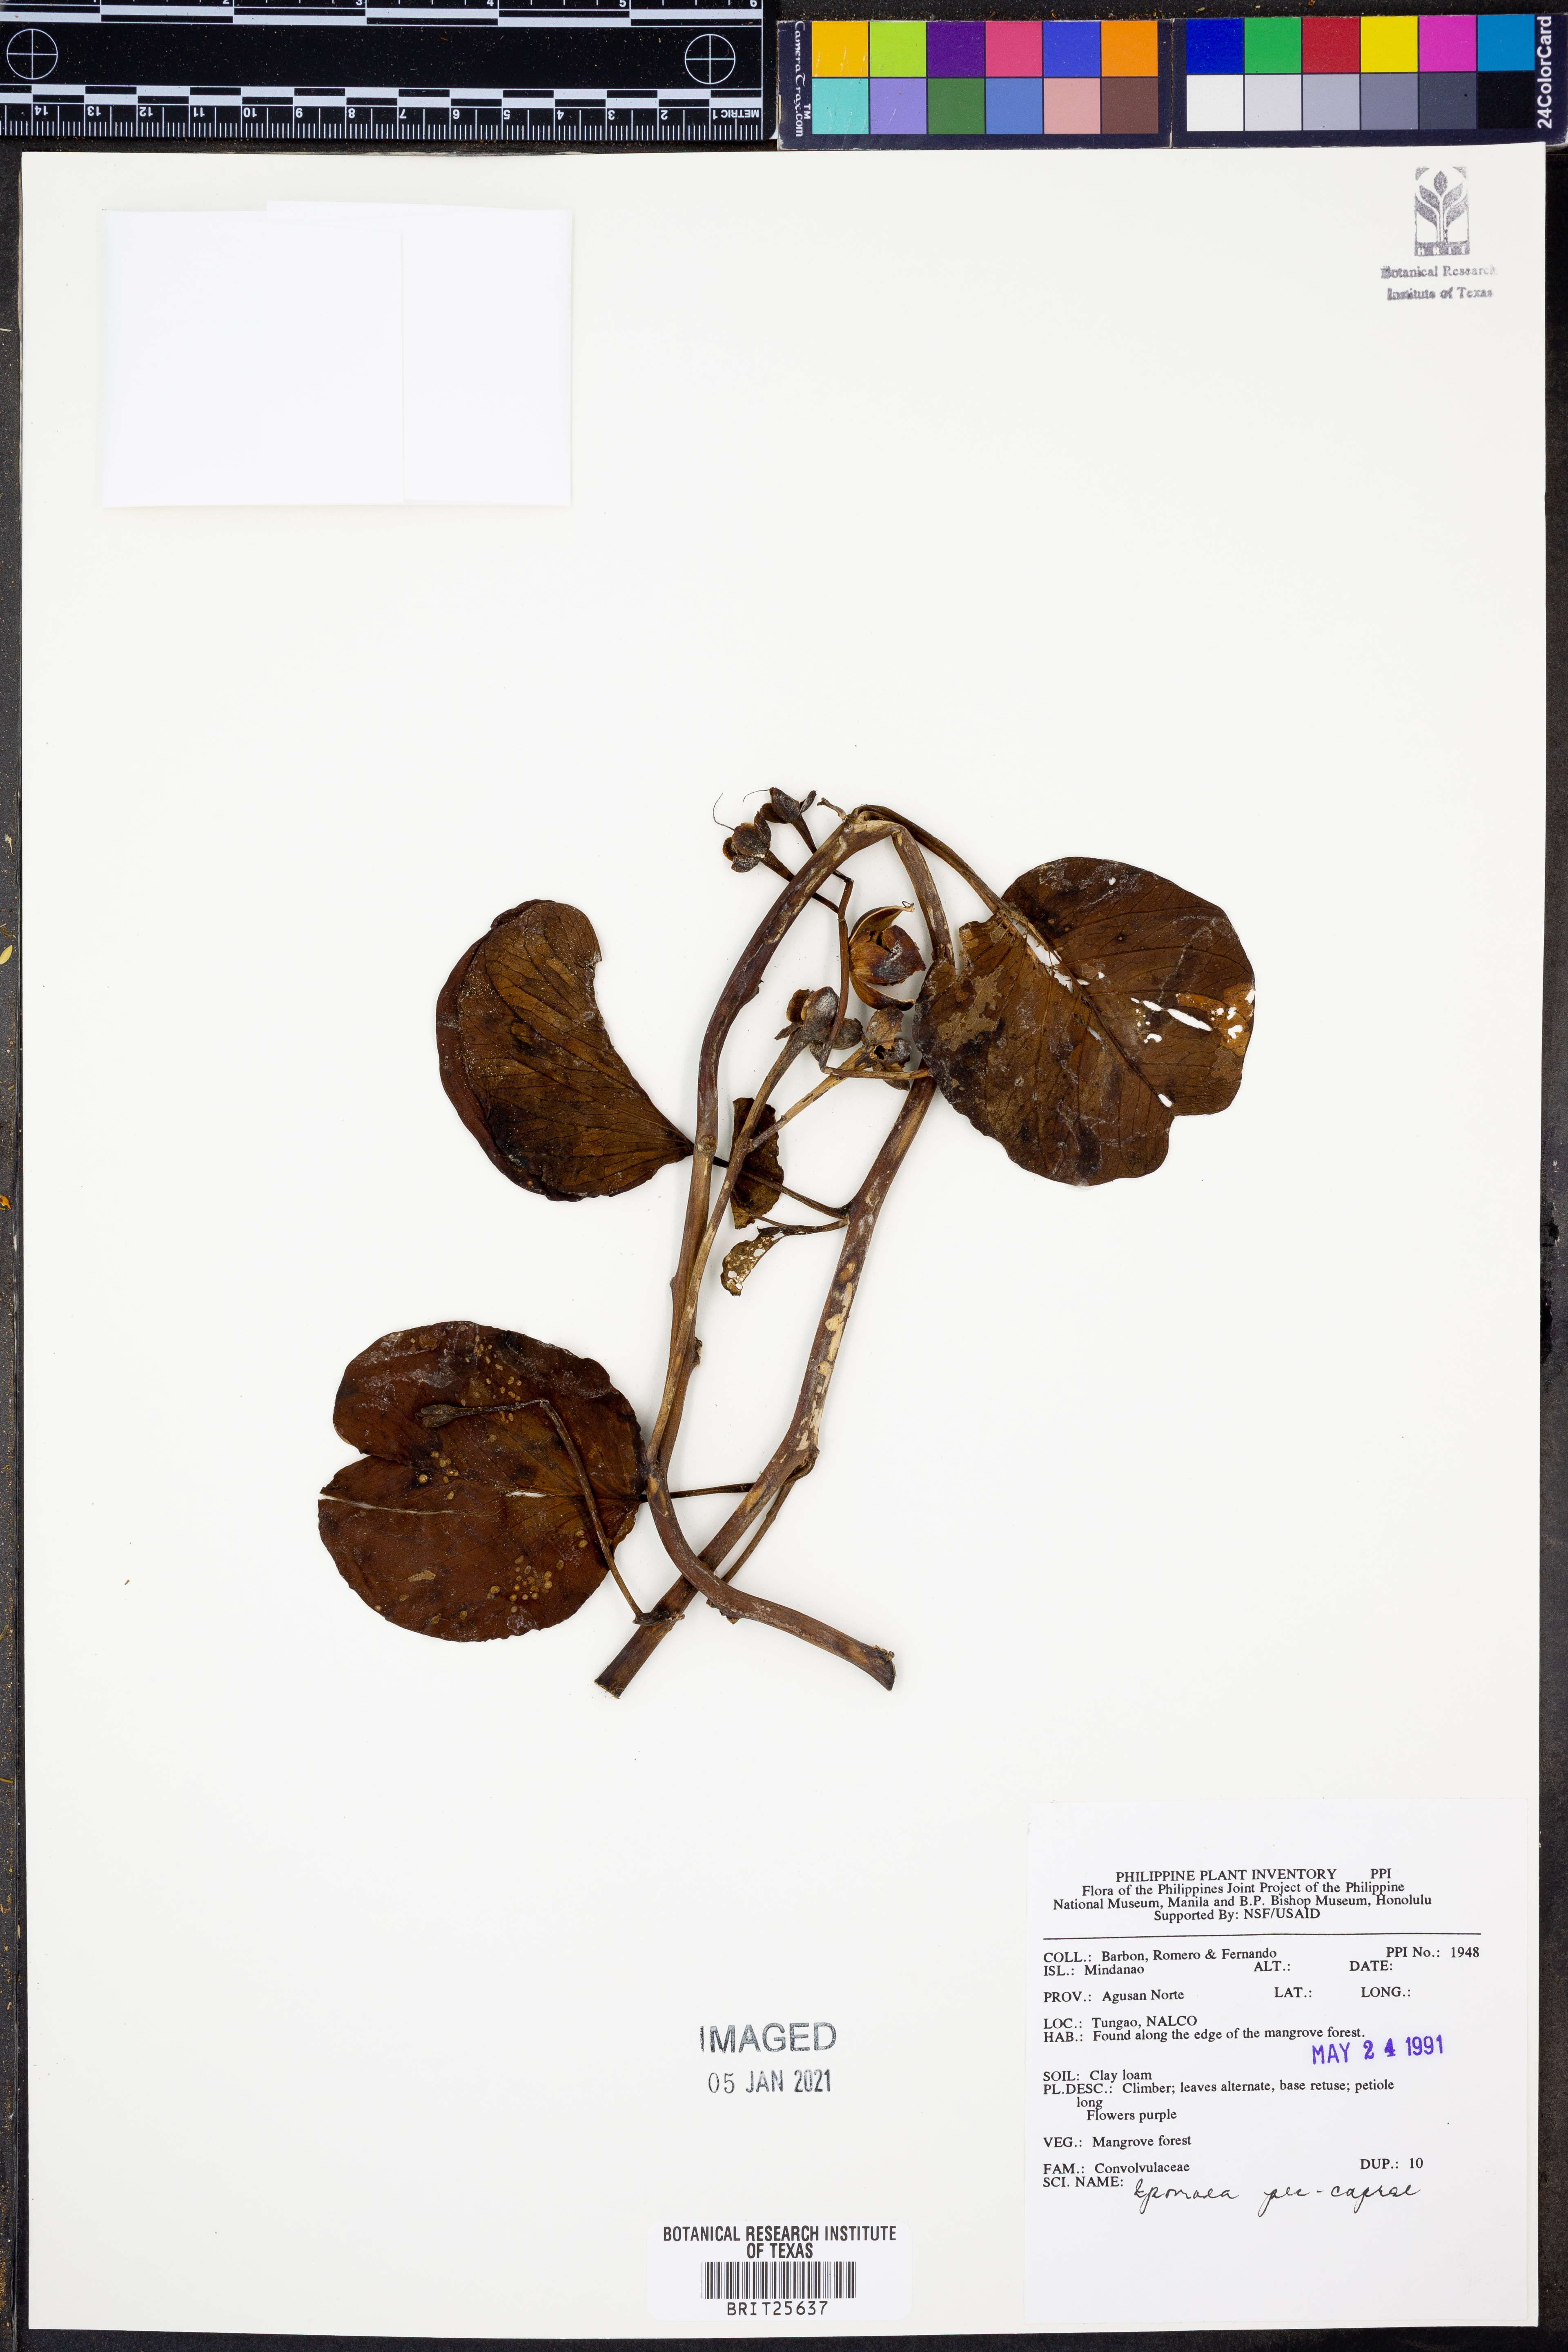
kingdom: Plantae
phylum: Tracheophyta
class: Magnoliopsida
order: Solanales
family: Convolvulaceae
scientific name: Convolvulaceae
